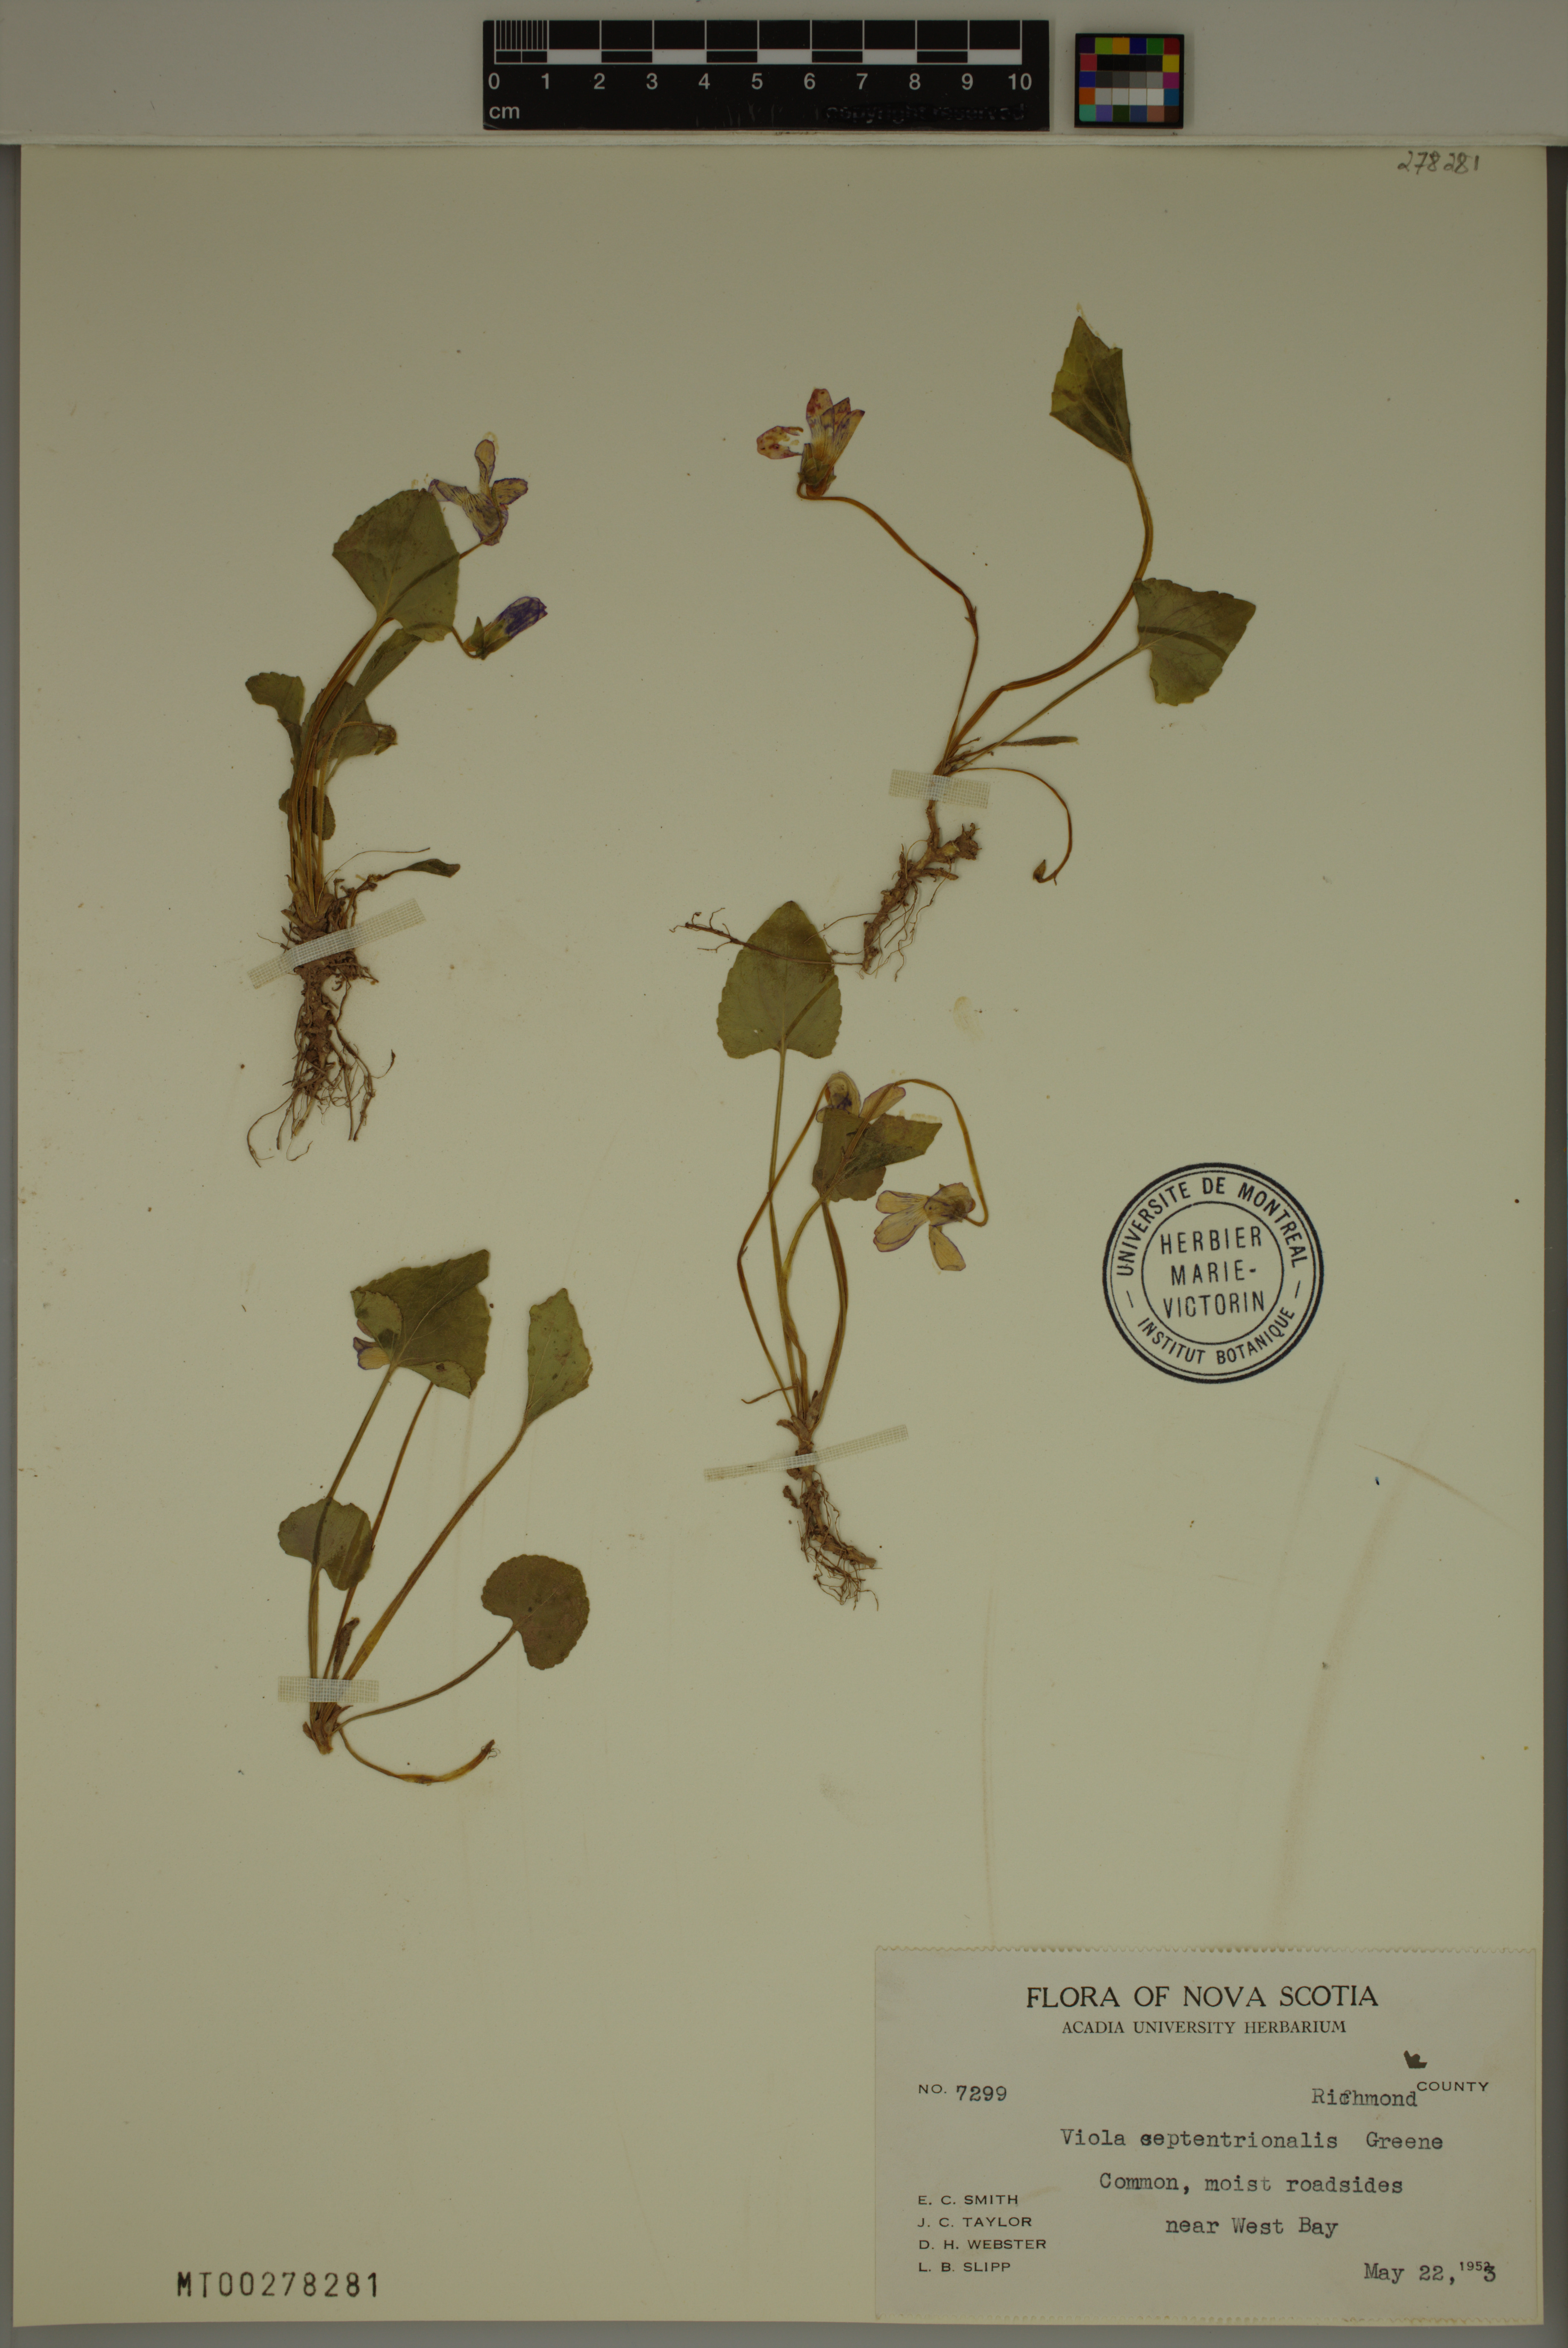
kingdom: Plantae
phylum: Tracheophyta
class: Magnoliopsida
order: Malpighiales
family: Violaceae
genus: Viola
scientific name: Viola septentrionalis
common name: Northern woodland violet
